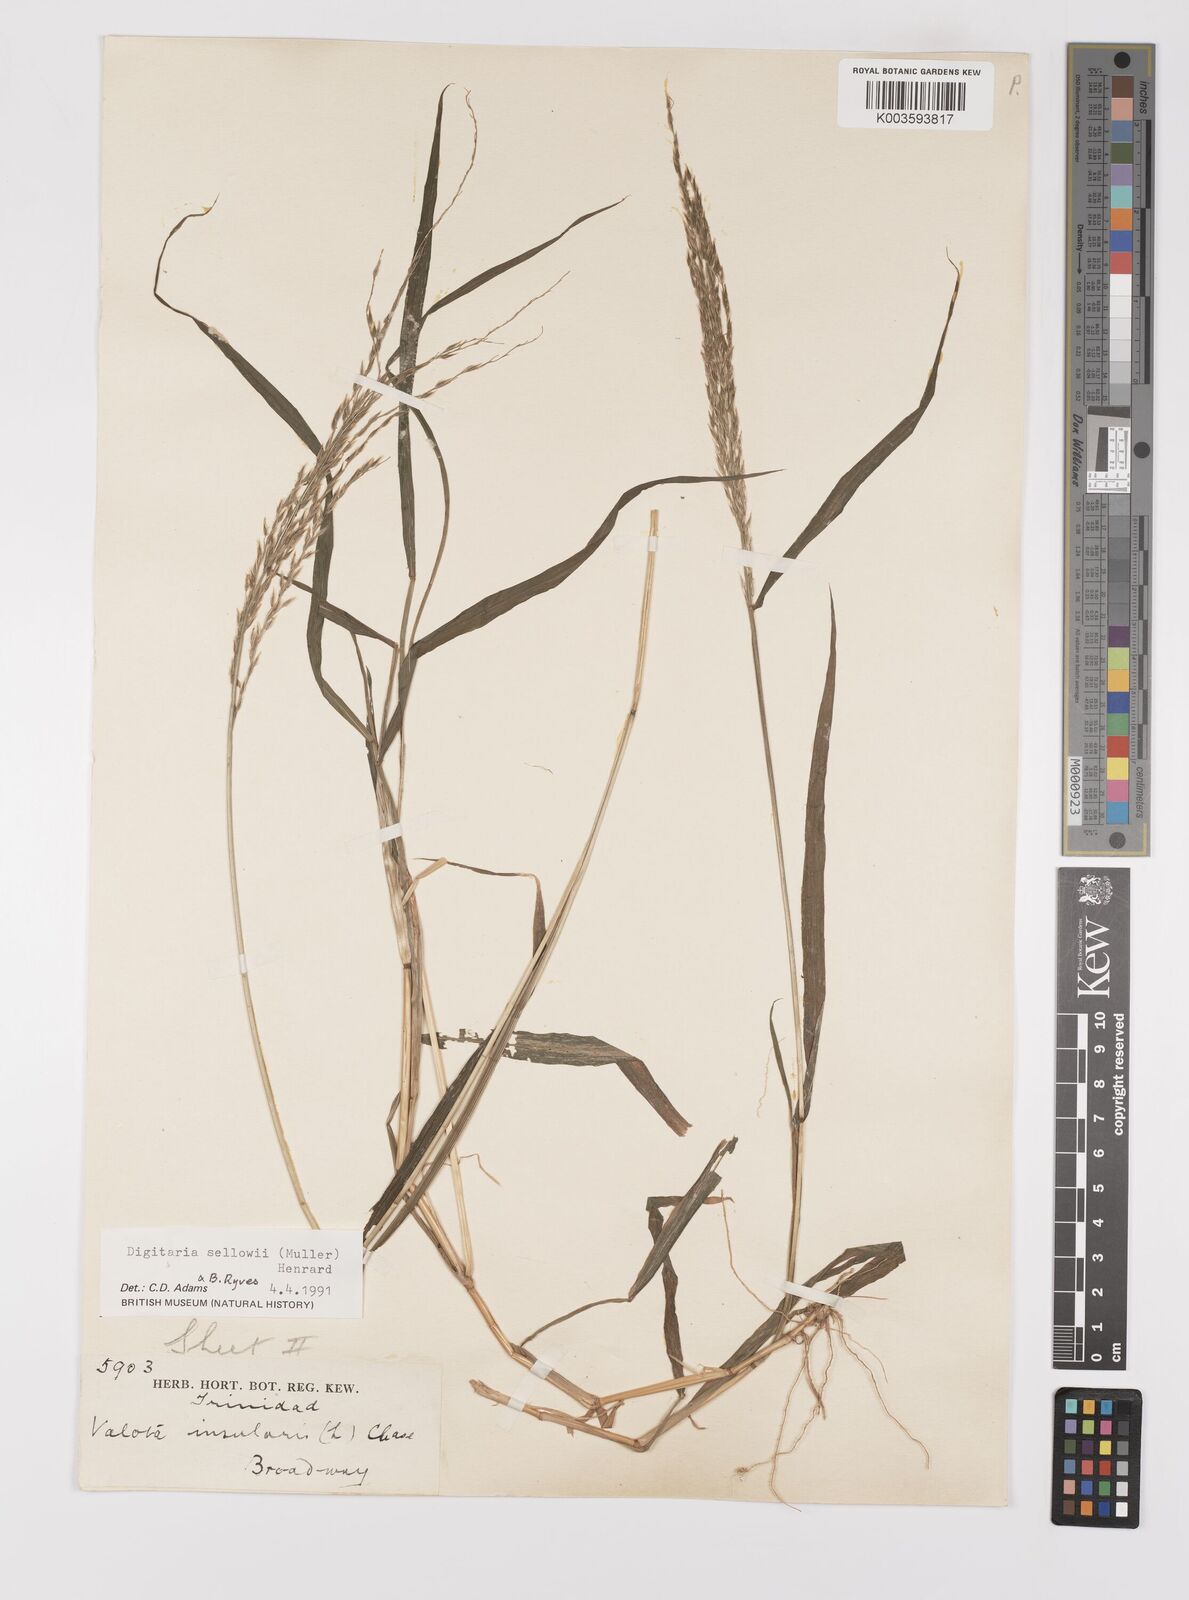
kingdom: Plantae
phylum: Tracheophyta
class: Liliopsida
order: Poales
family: Poaceae
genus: Digitaria
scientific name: Digitaria sellowii
